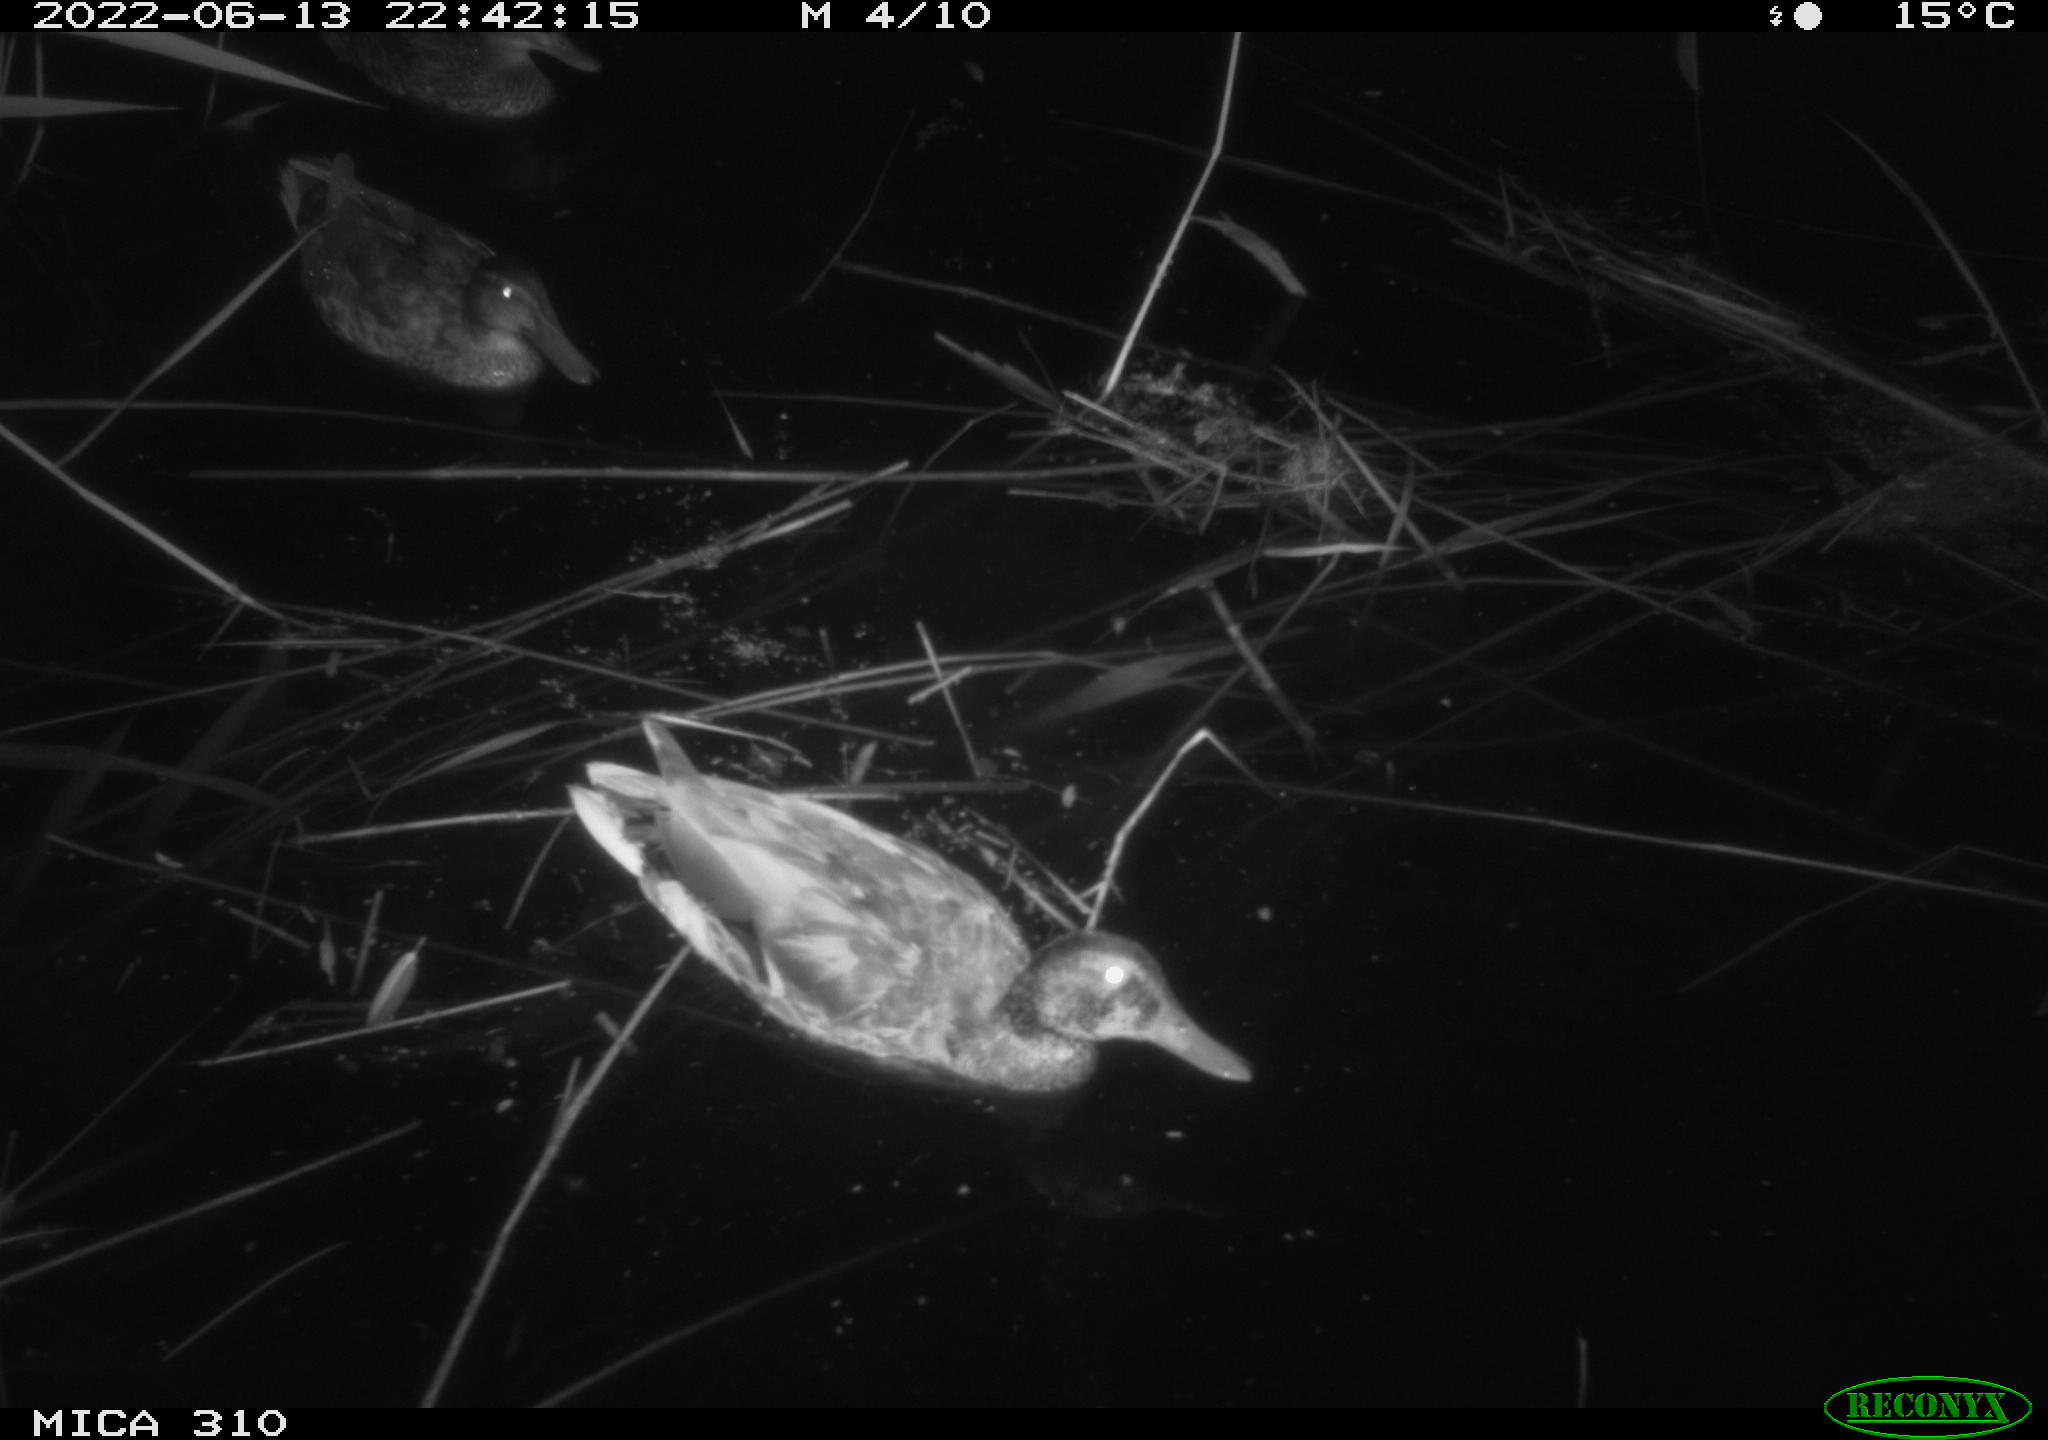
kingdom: Animalia
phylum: Chordata
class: Aves
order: Anseriformes
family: Anatidae
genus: Anas
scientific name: Anas platyrhynchos
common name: Mallard
